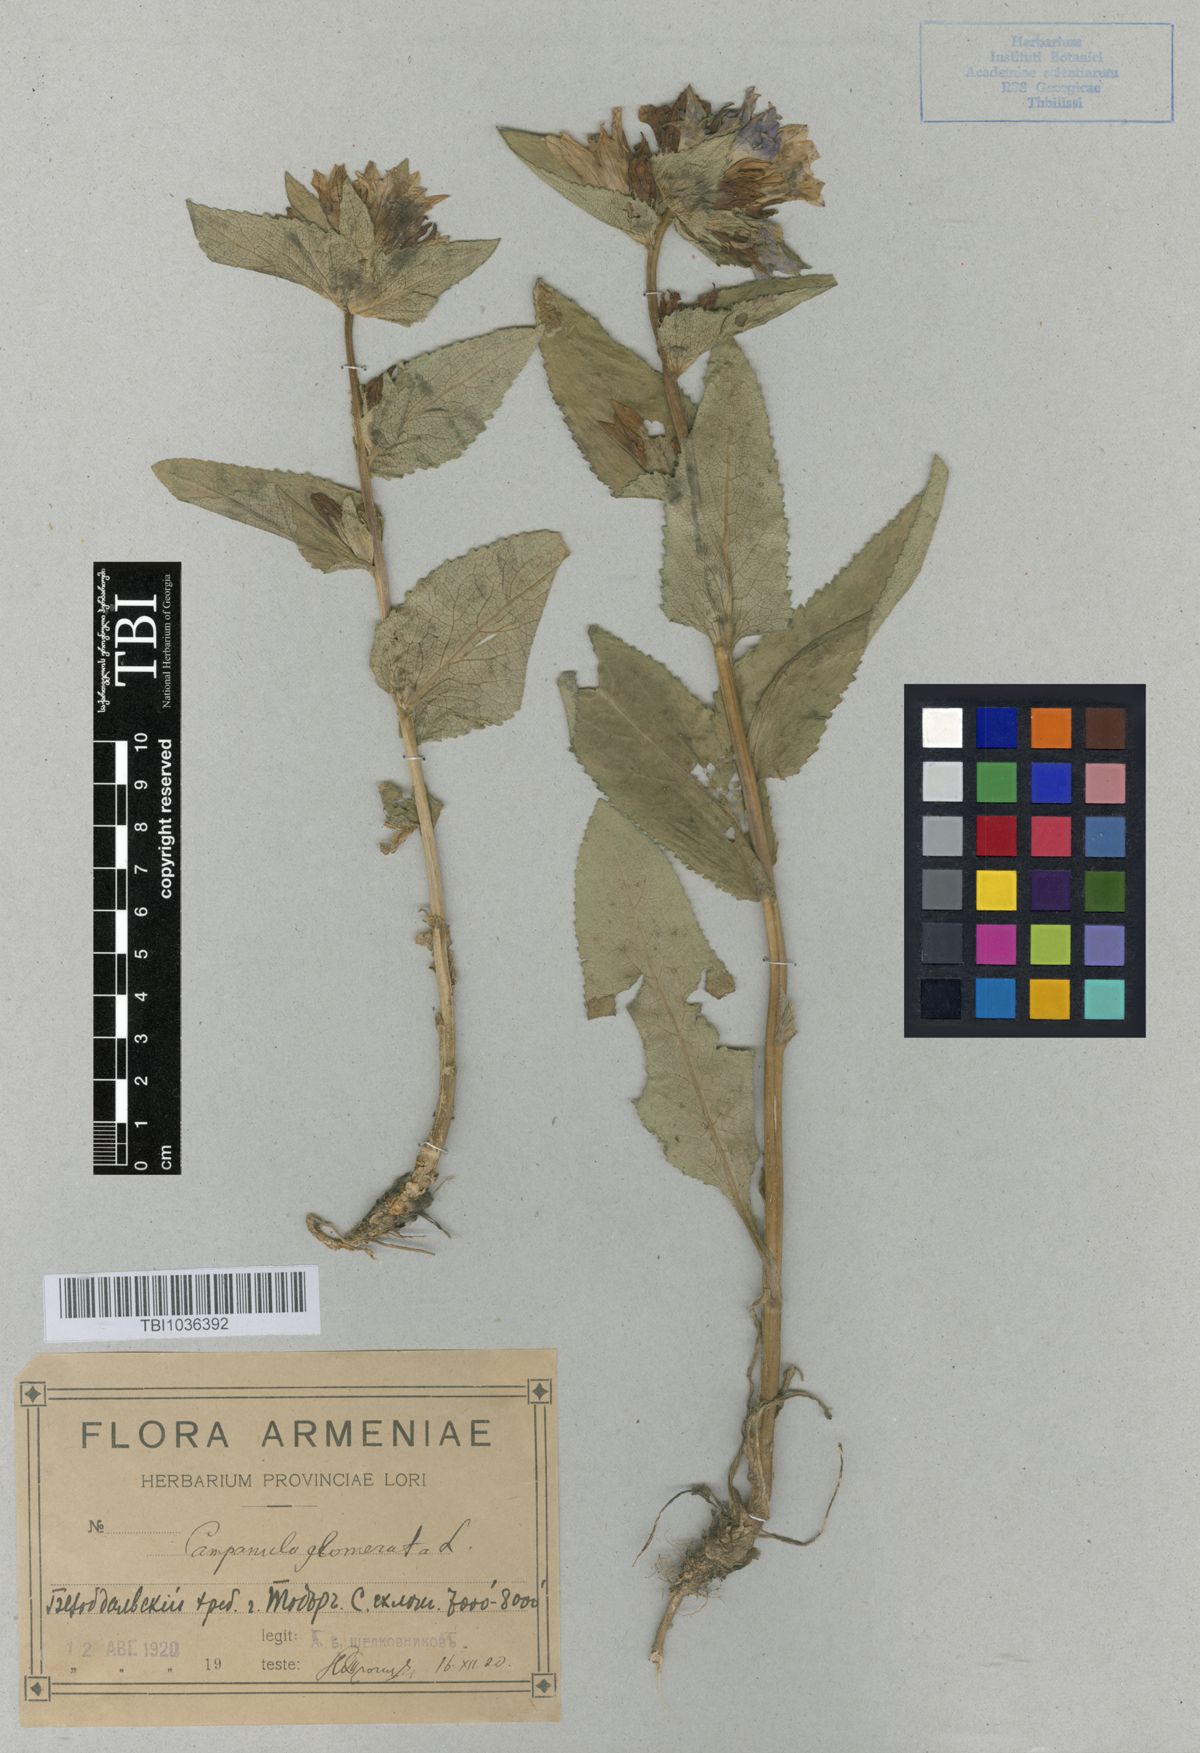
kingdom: Plantae
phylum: Tracheophyta
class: Magnoliopsida
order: Asterales
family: Campanulaceae
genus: Campanula
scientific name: Campanula glomerata
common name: Clustered bellflower
